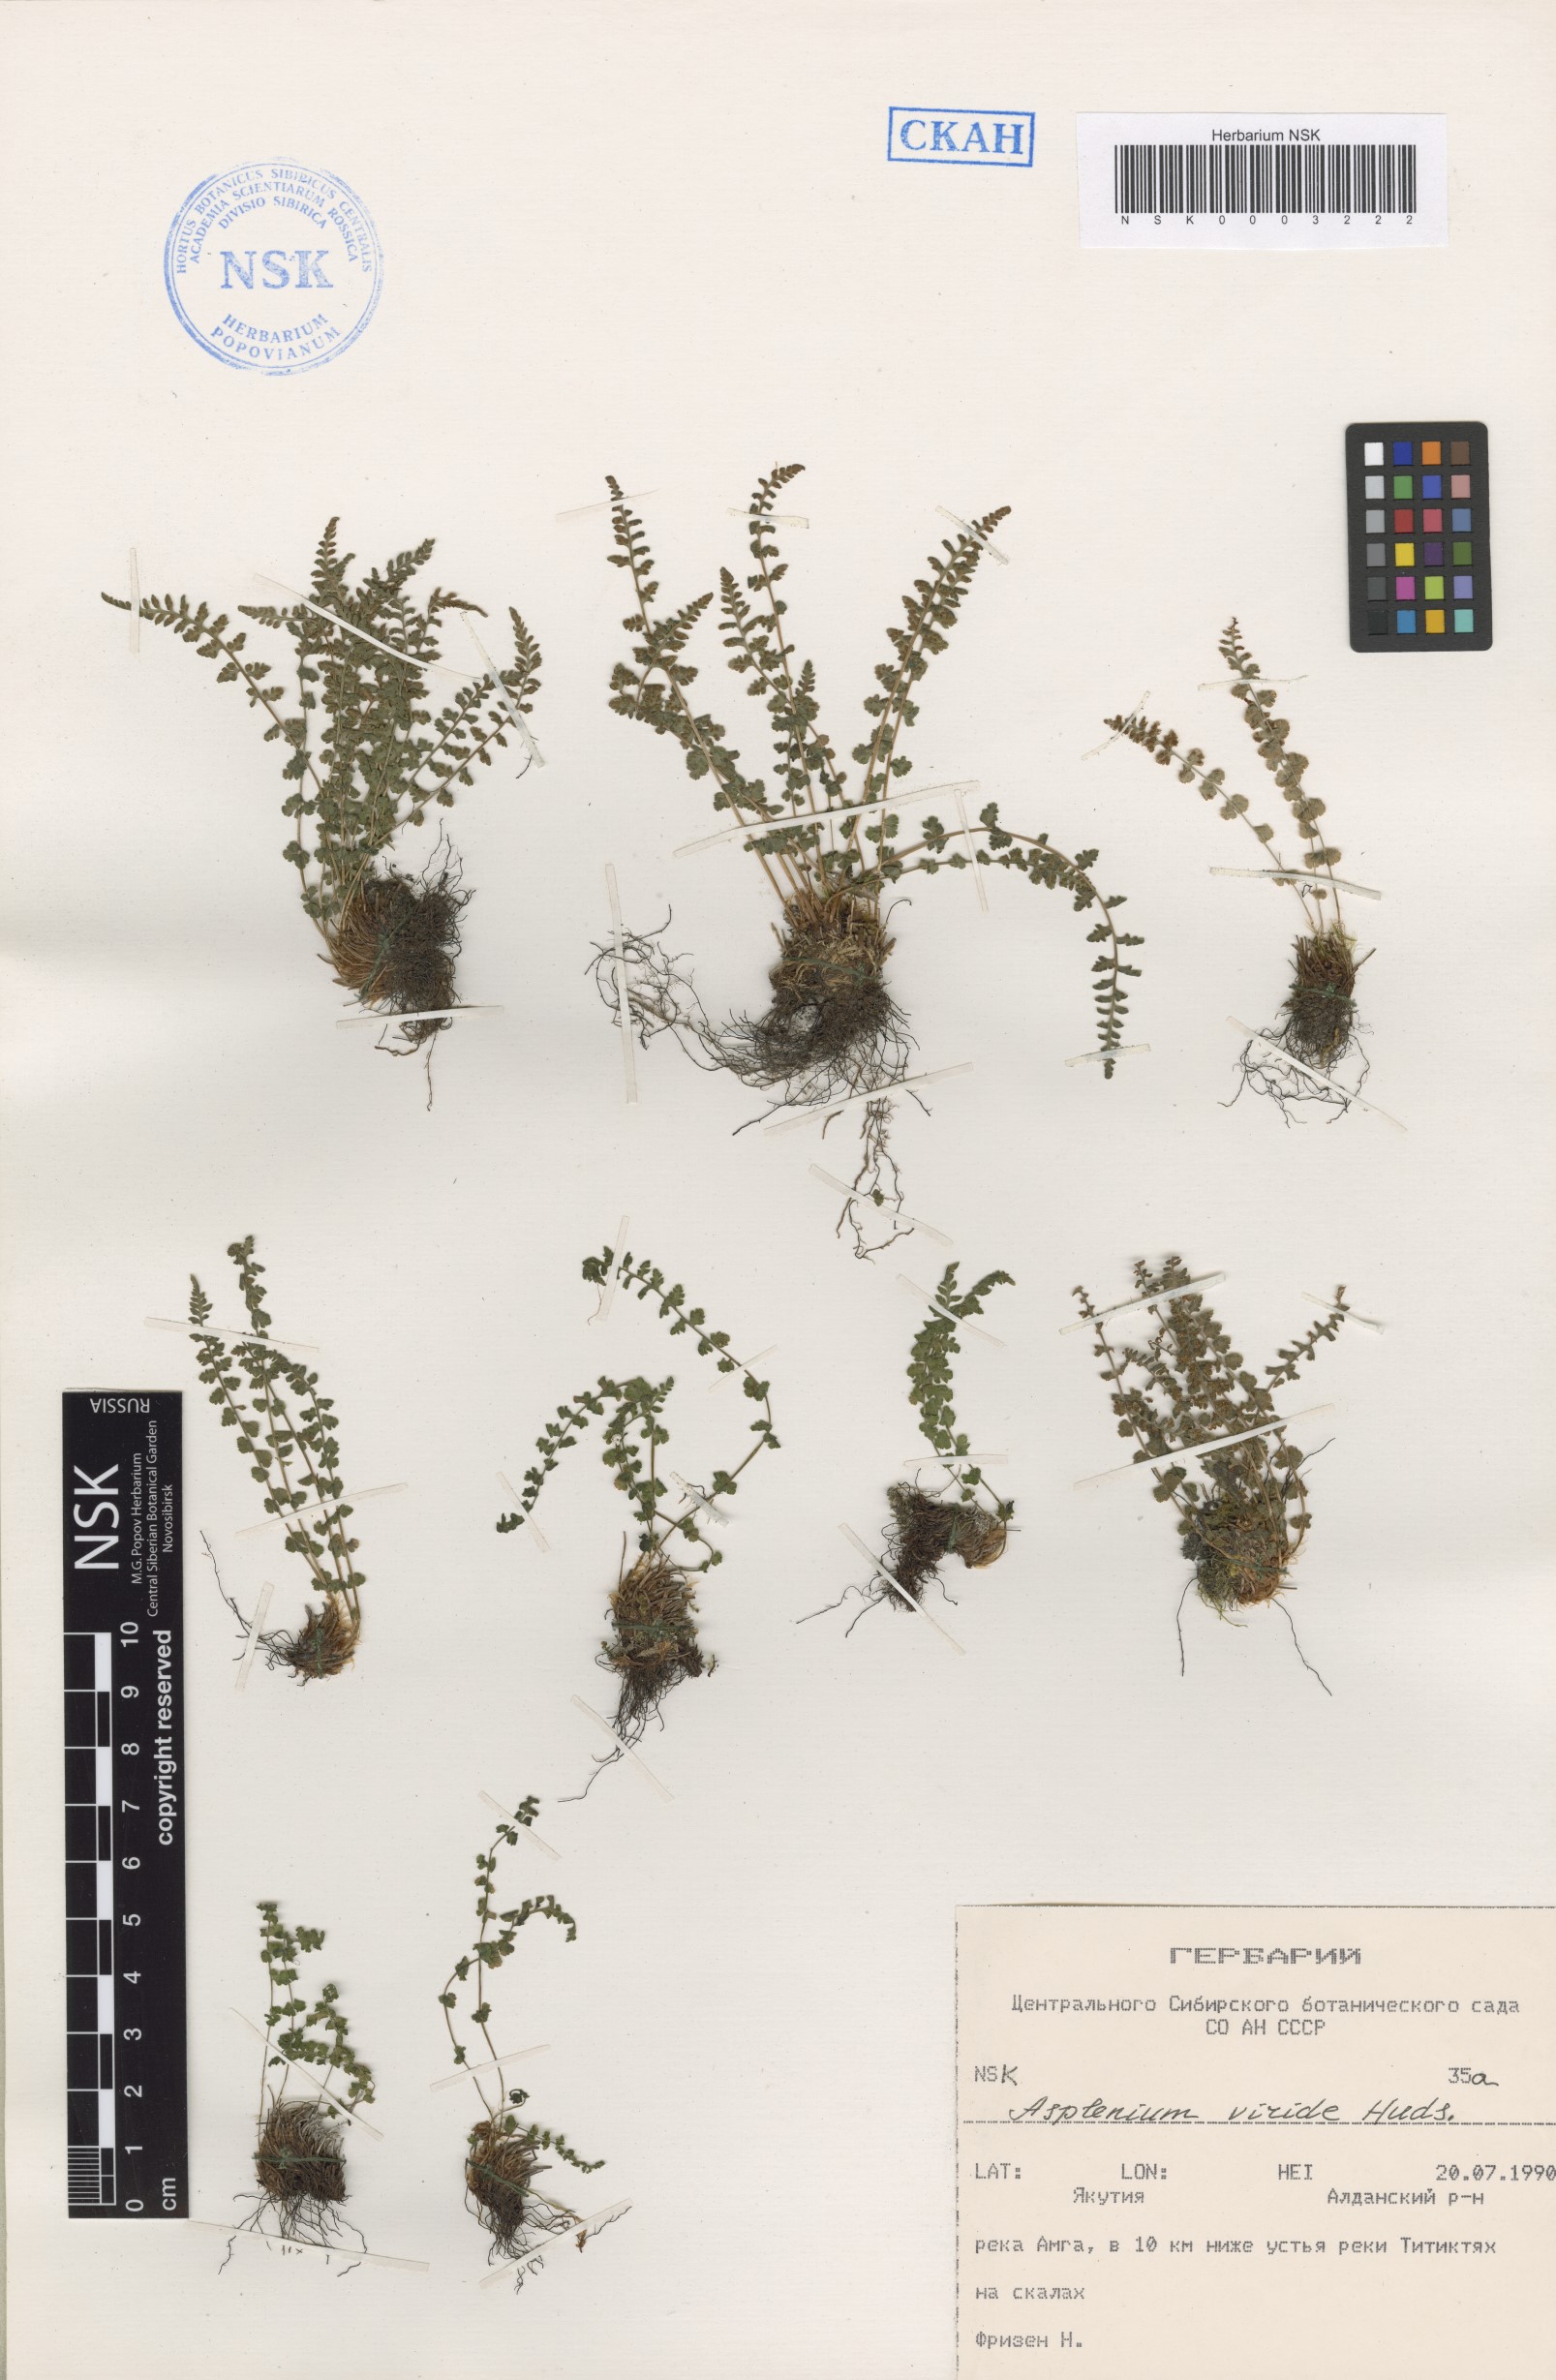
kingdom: Plantae
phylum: Tracheophyta
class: Polypodiopsida
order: Polypodiales
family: Aspleniaceae
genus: Asplenium
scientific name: Asplenium viride
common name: Green spleenwort
